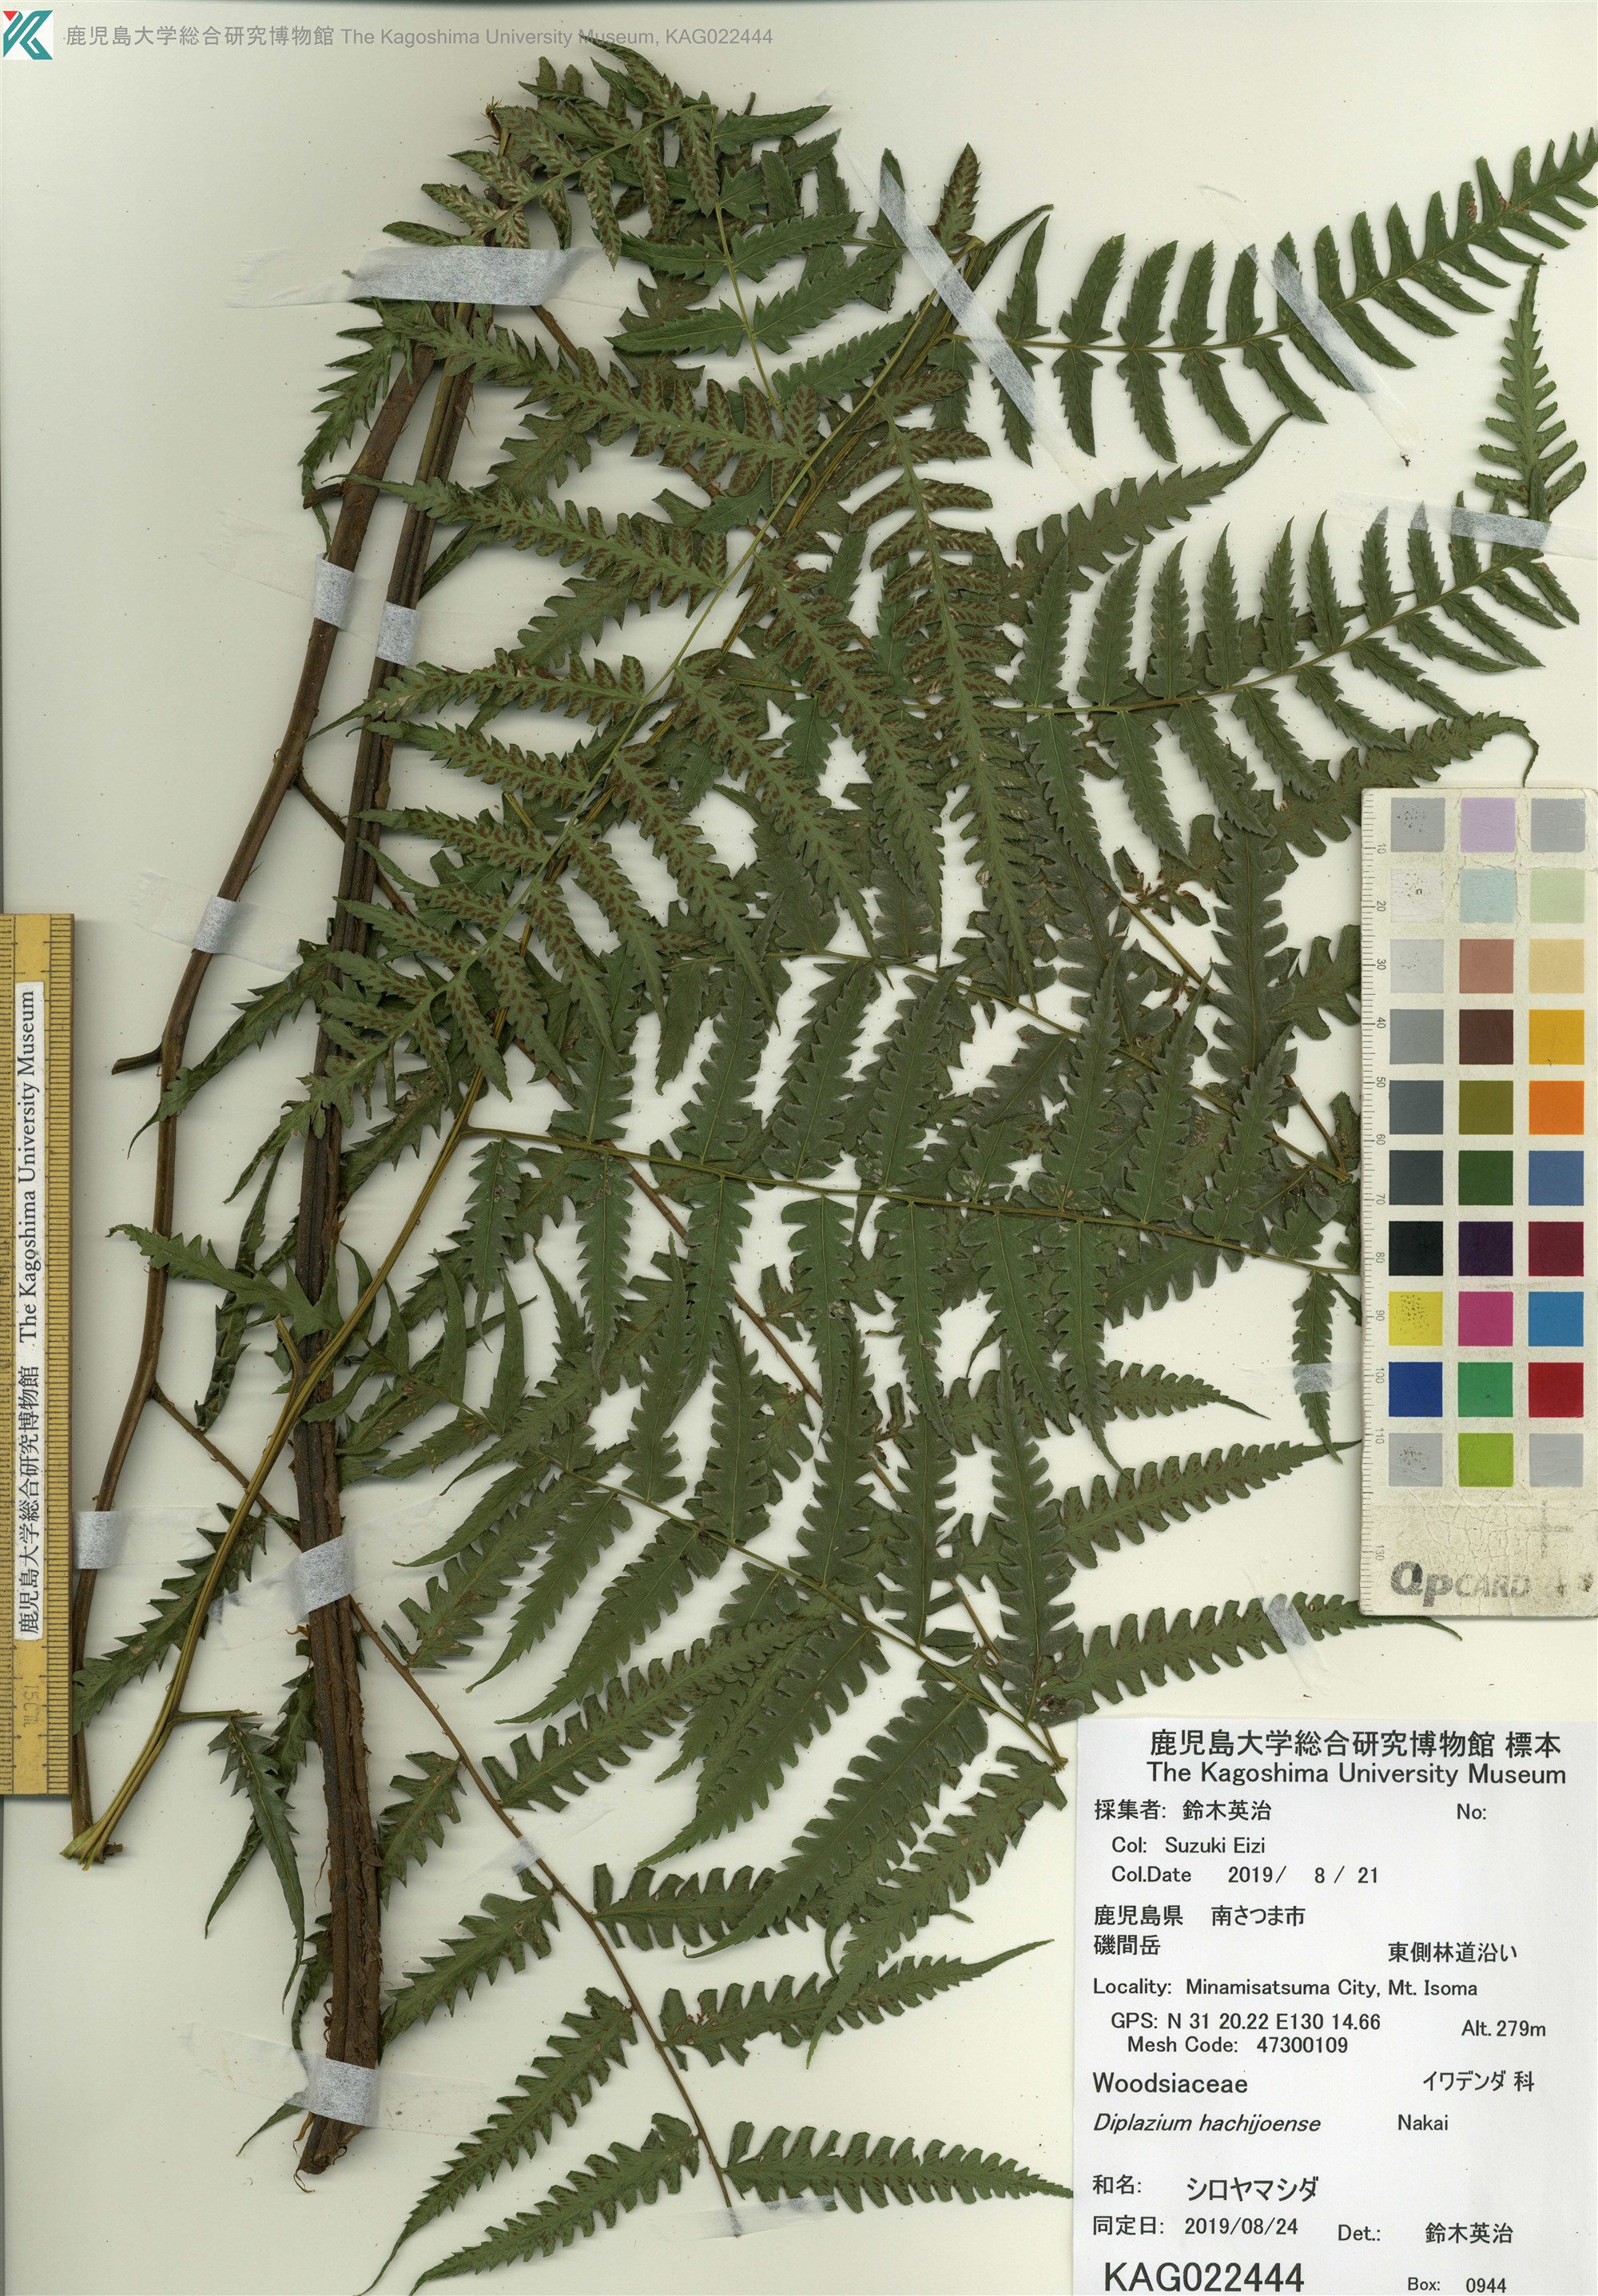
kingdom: Plantae
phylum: Tracheophyta
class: Polypodiopsida
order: Polypodiales
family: Athyriaceae
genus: Diplazium
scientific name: Diplazium hachijoense
